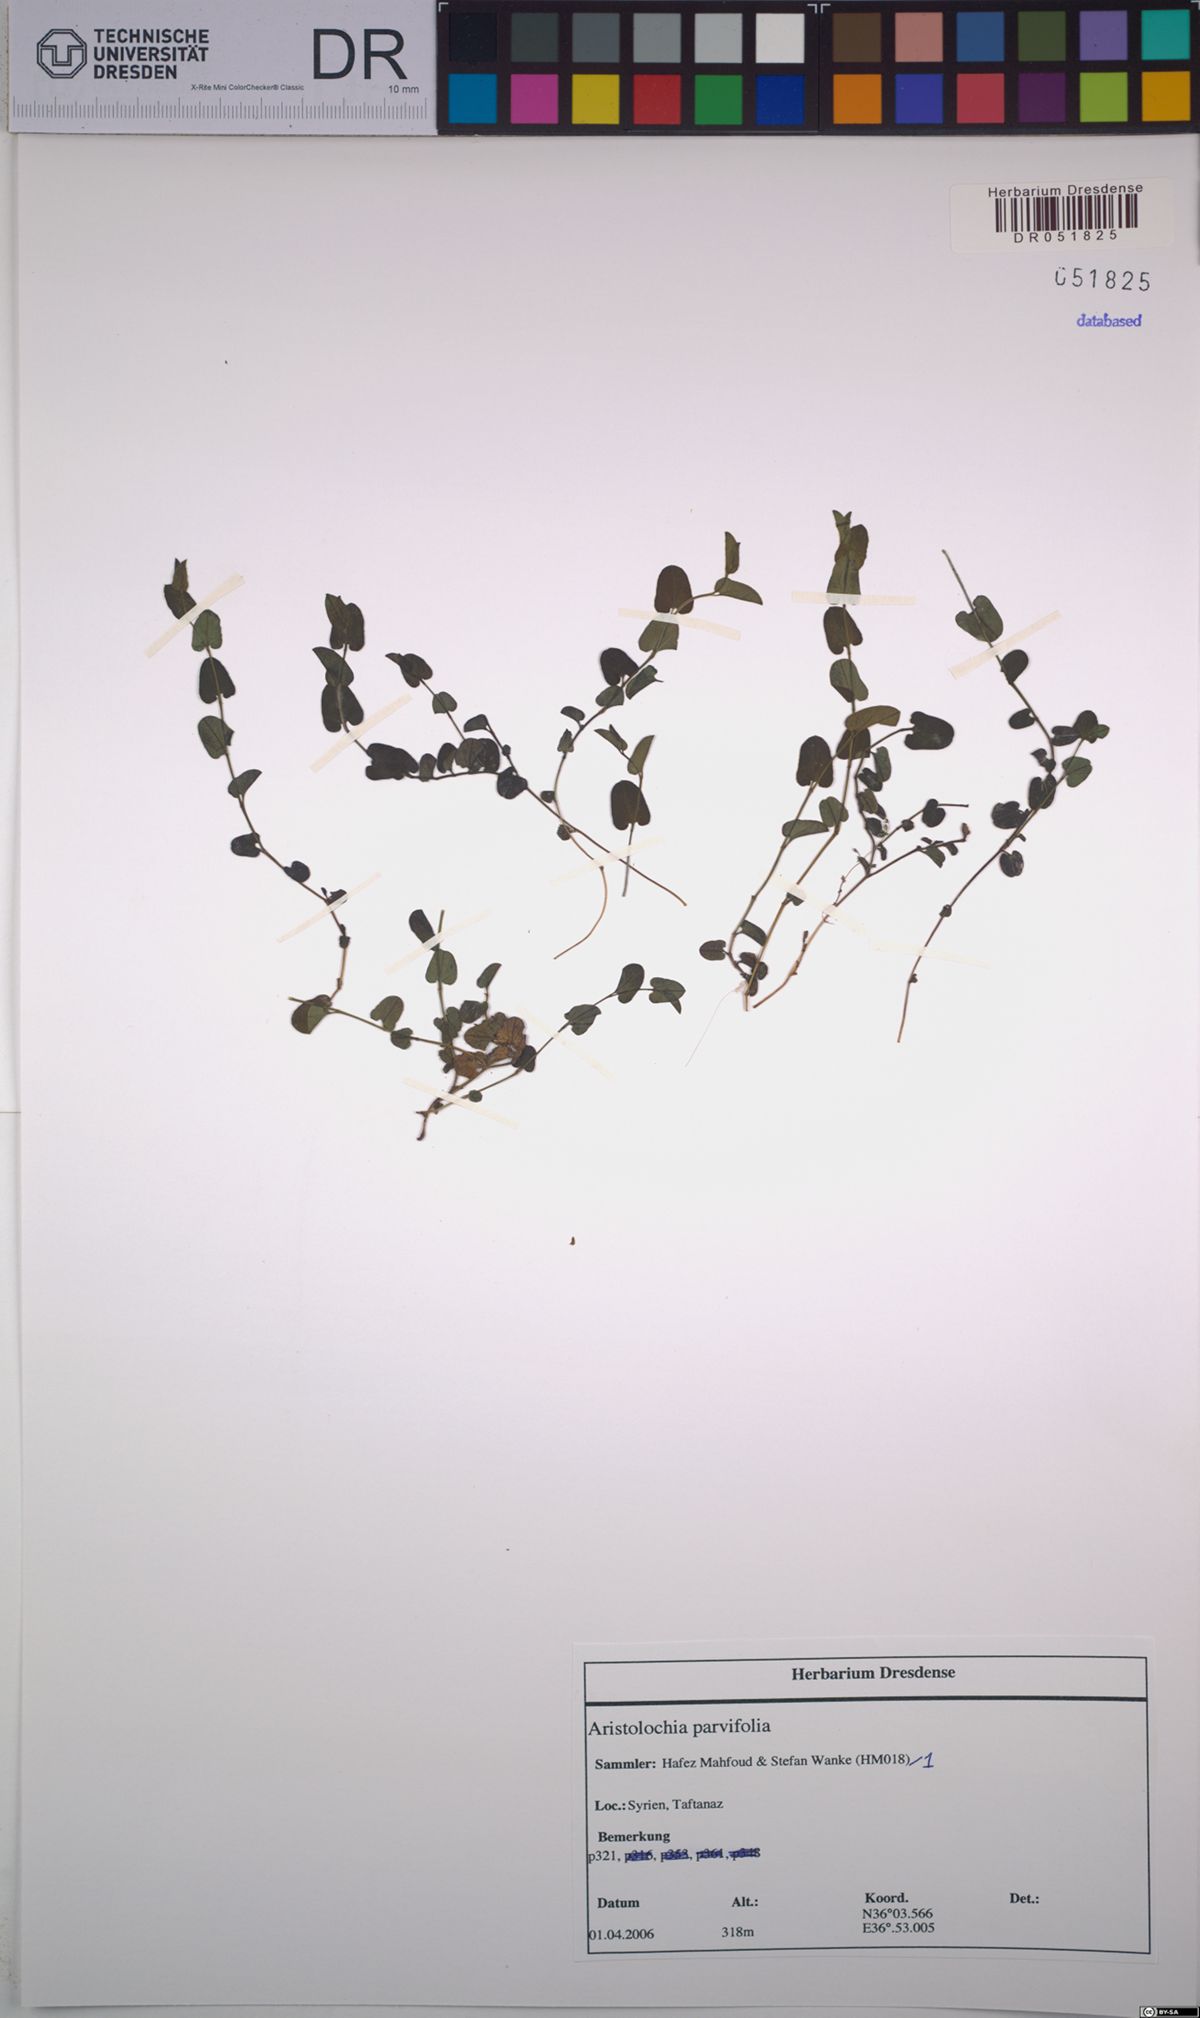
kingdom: Plantae
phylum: Tracheophyta
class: Magnoliopsida
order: Piperales
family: Aristolochiaceae
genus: Aristolochia
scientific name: Aristolochia parvifolia
